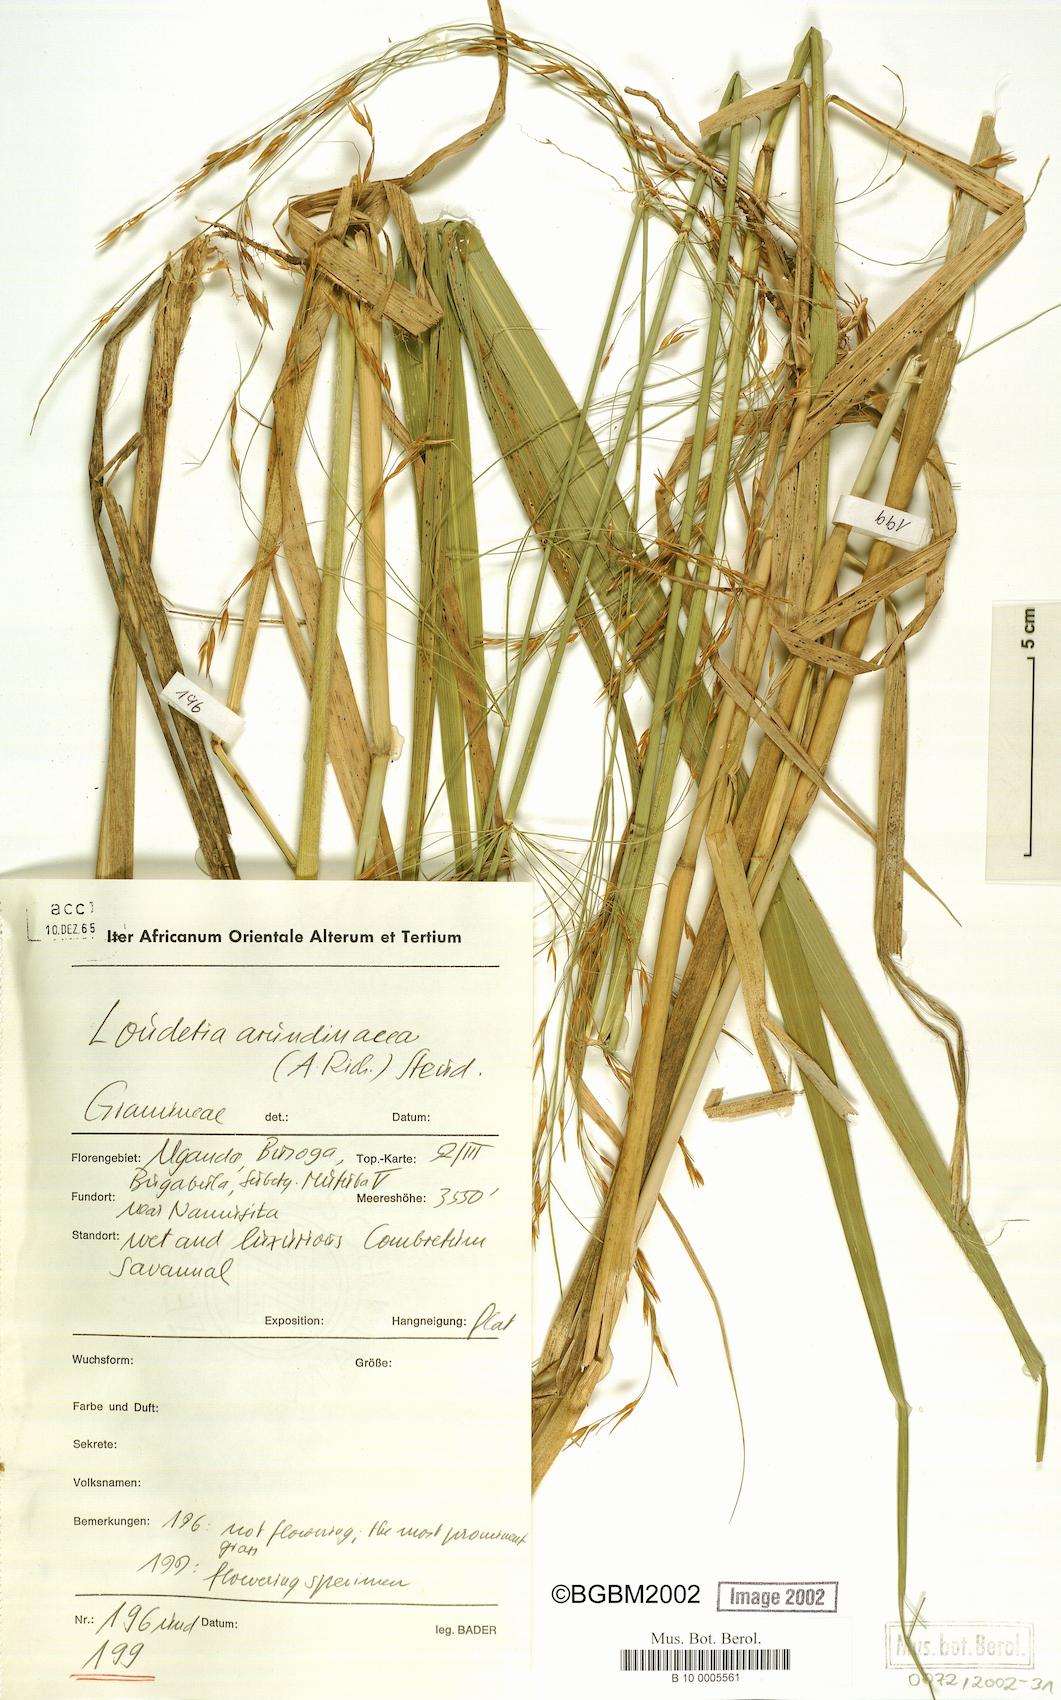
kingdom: Plantae
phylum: Tracheophyta
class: Liliopsida
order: Poales
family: Poaceae
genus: Loudetia
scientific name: Loudetia arundinacea
